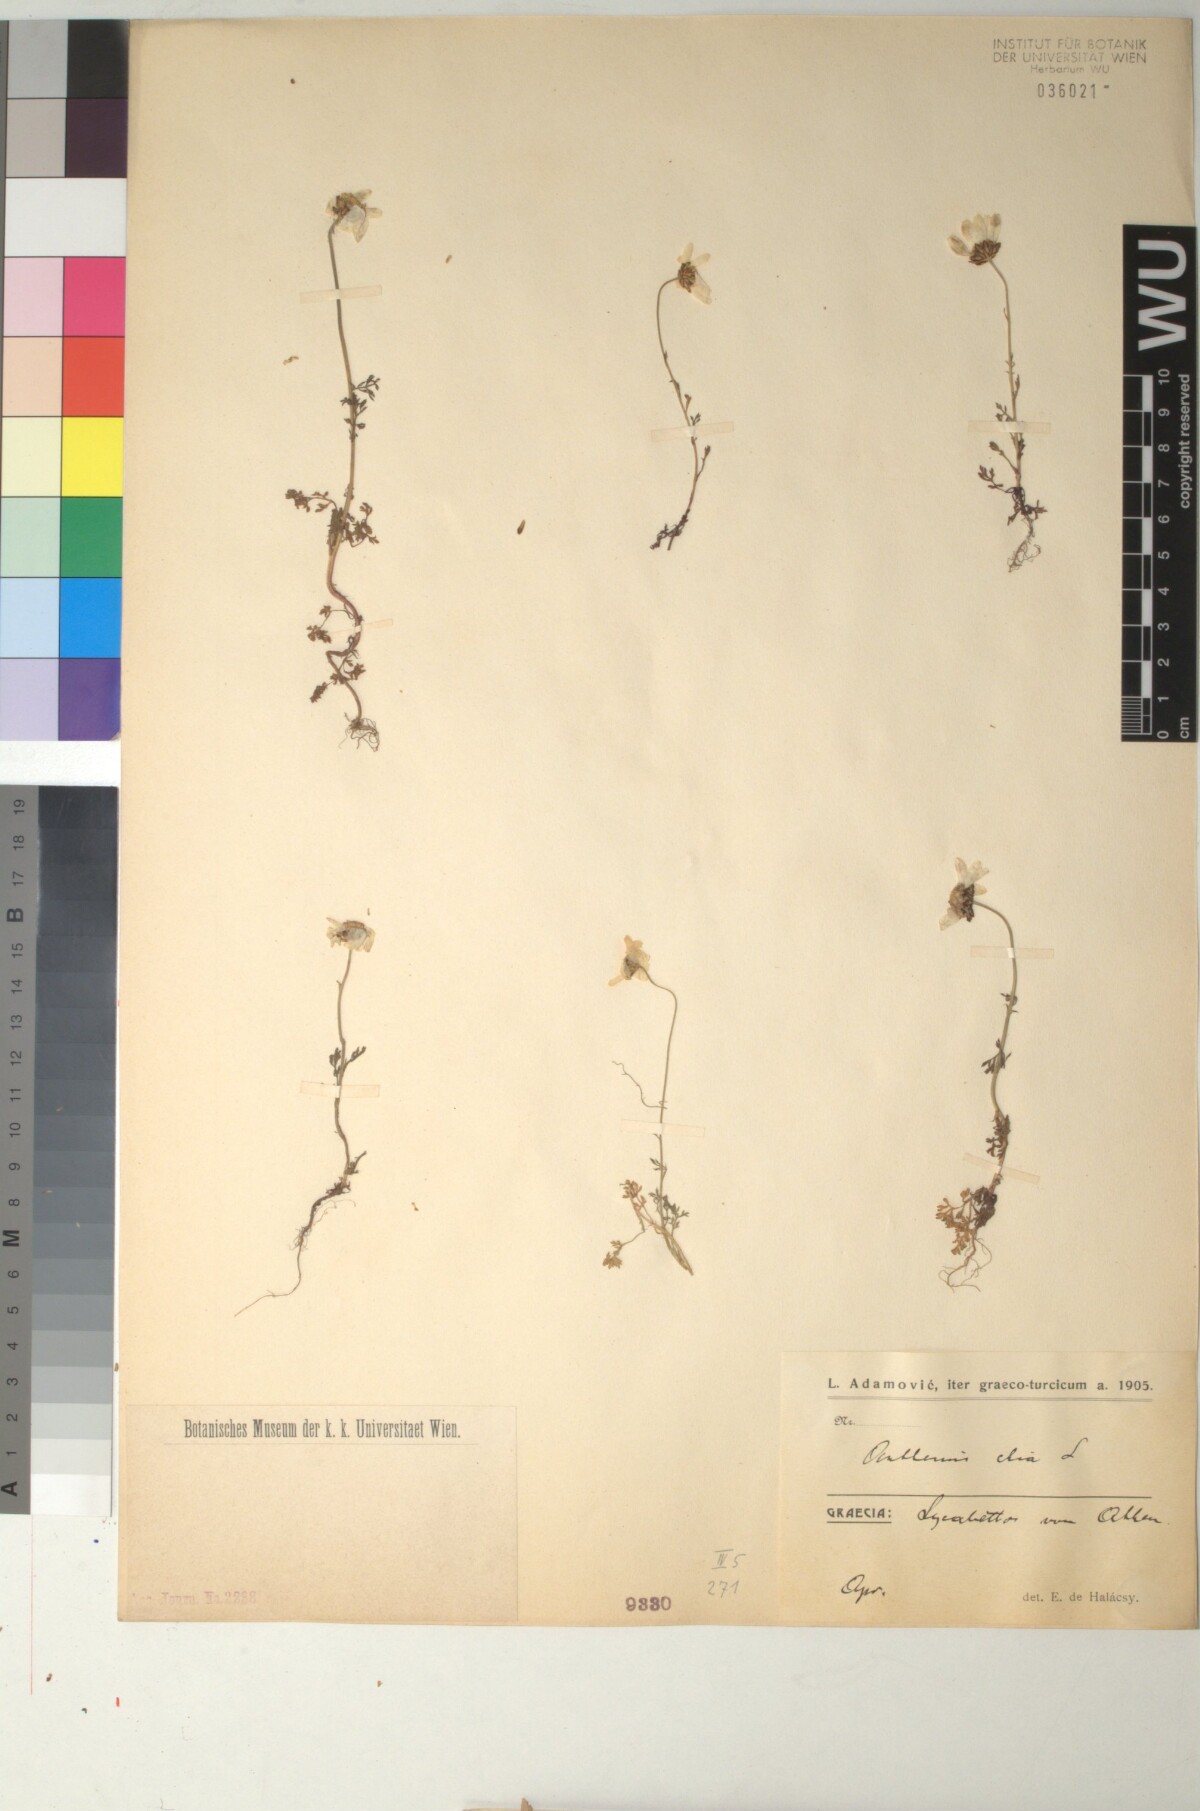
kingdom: Plantae
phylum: Tracheophyta
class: Magnoliopsida
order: Asterales
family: Asteraceae
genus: Anthemis
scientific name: Anthemis chia
